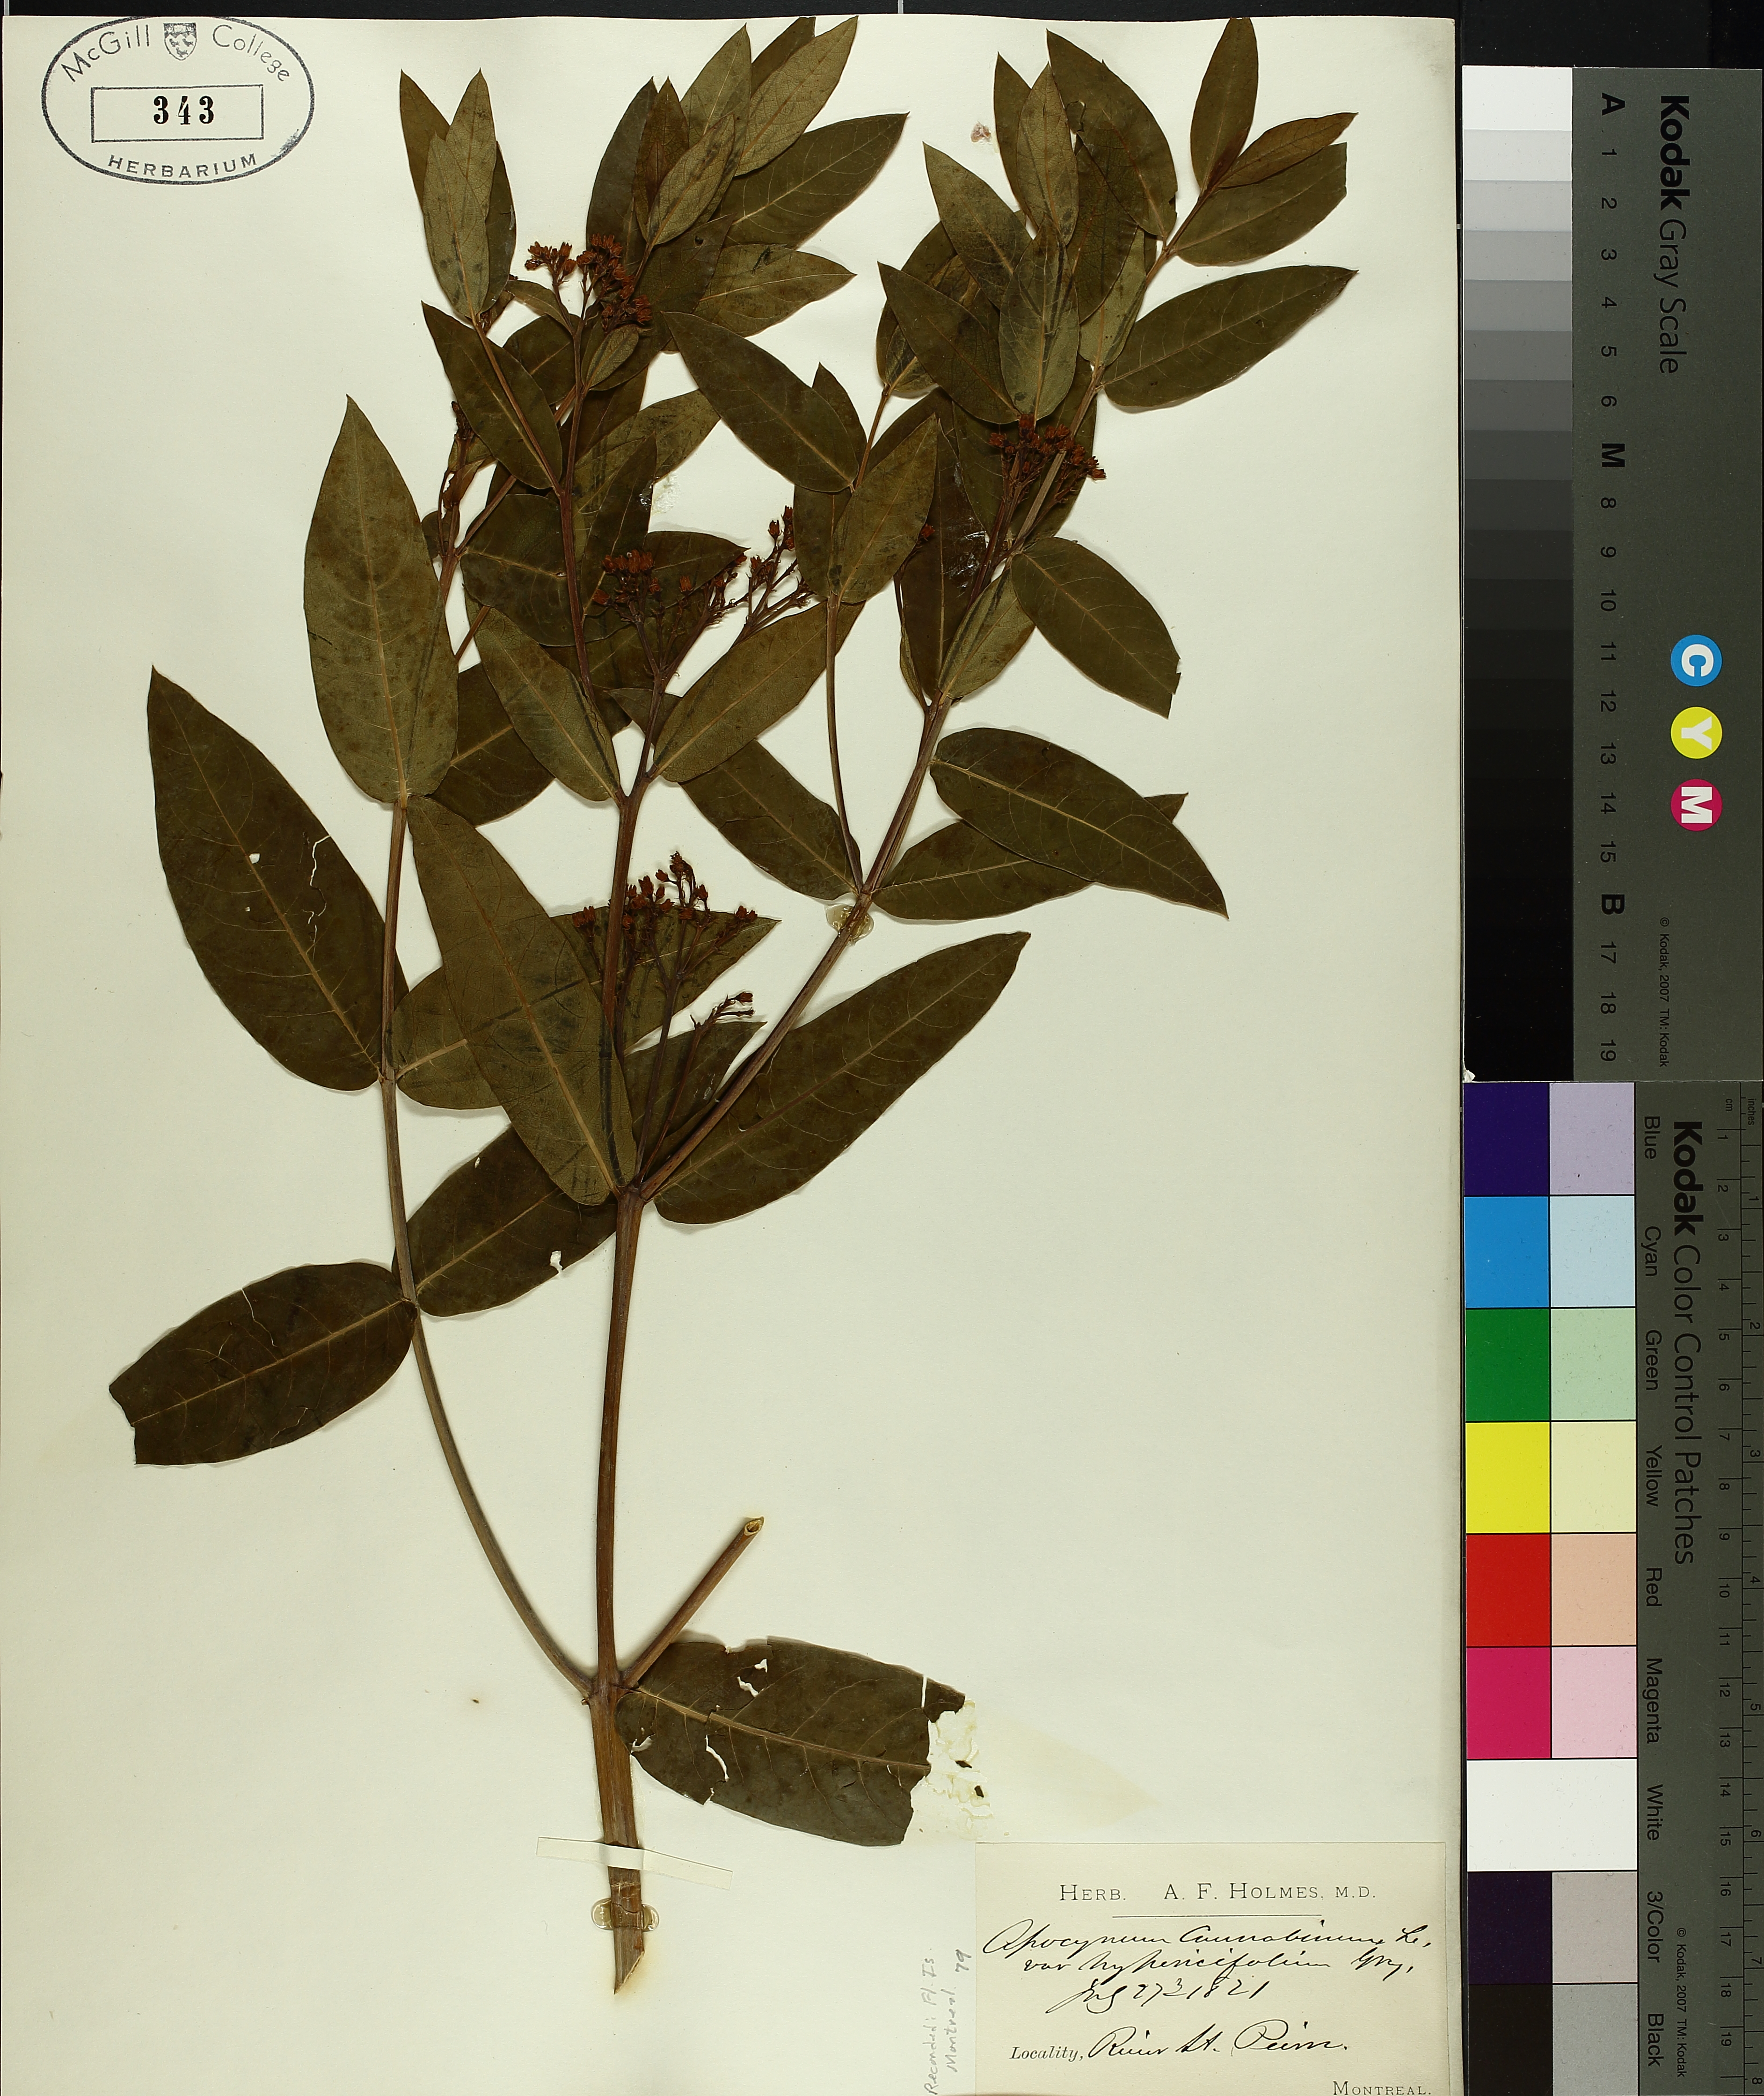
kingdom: Plantae
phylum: Tracheophyta
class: Magnoliopsida
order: Gentianales
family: Apocynaceae
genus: Apocynum
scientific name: Apocynum cannabinum
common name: Hemp dogbane
